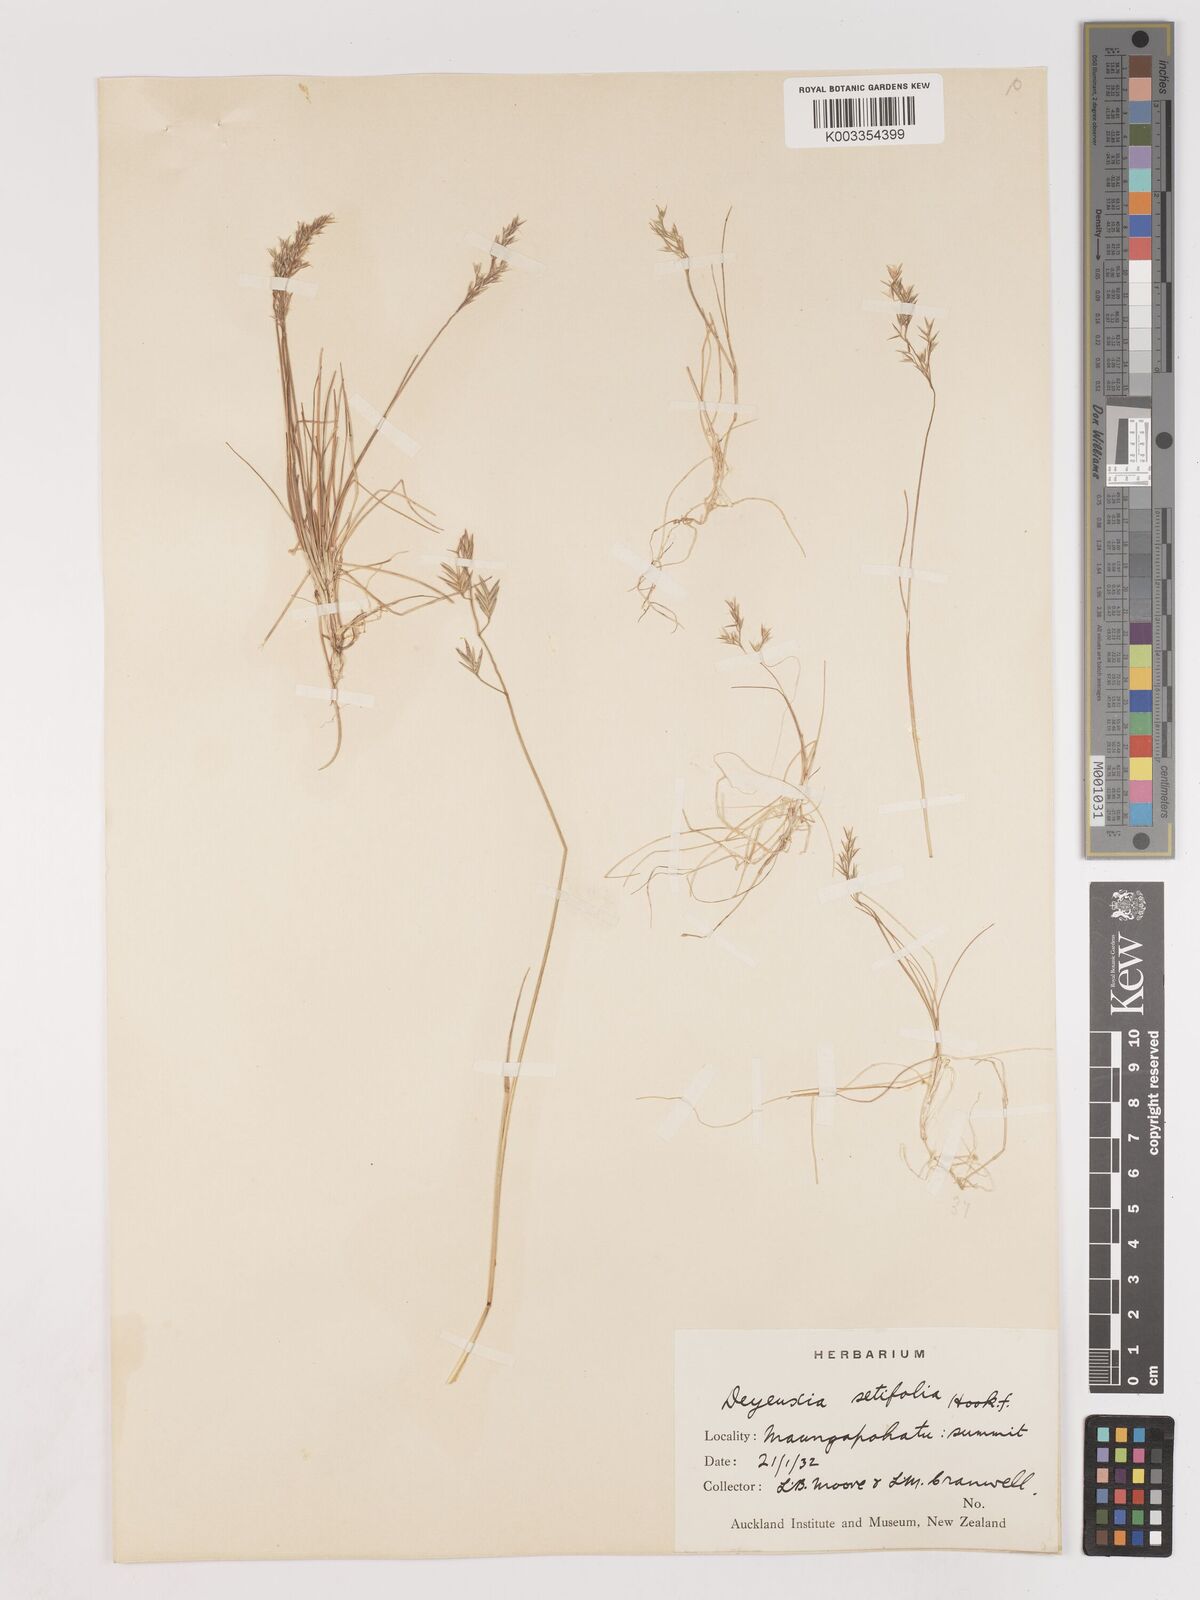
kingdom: Plantae
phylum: Tracheophyta
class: Liliopsida
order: Poales
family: Poaceae
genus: Agrostis
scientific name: Agrostis aucklandica
